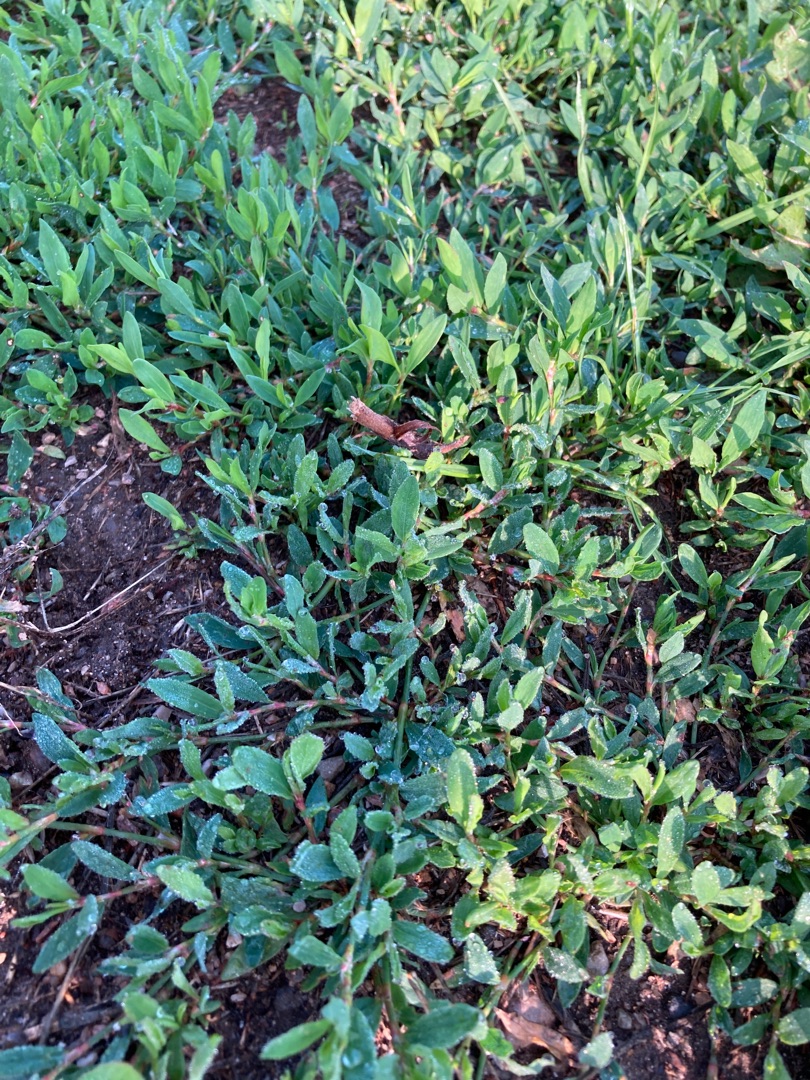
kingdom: Plantae
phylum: Tracheophyta
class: Magnoliopsida
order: Caryophyllales
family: Polygonaceae
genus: Polygonum
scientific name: Polygonum aviculare
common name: Vej-pileurt
